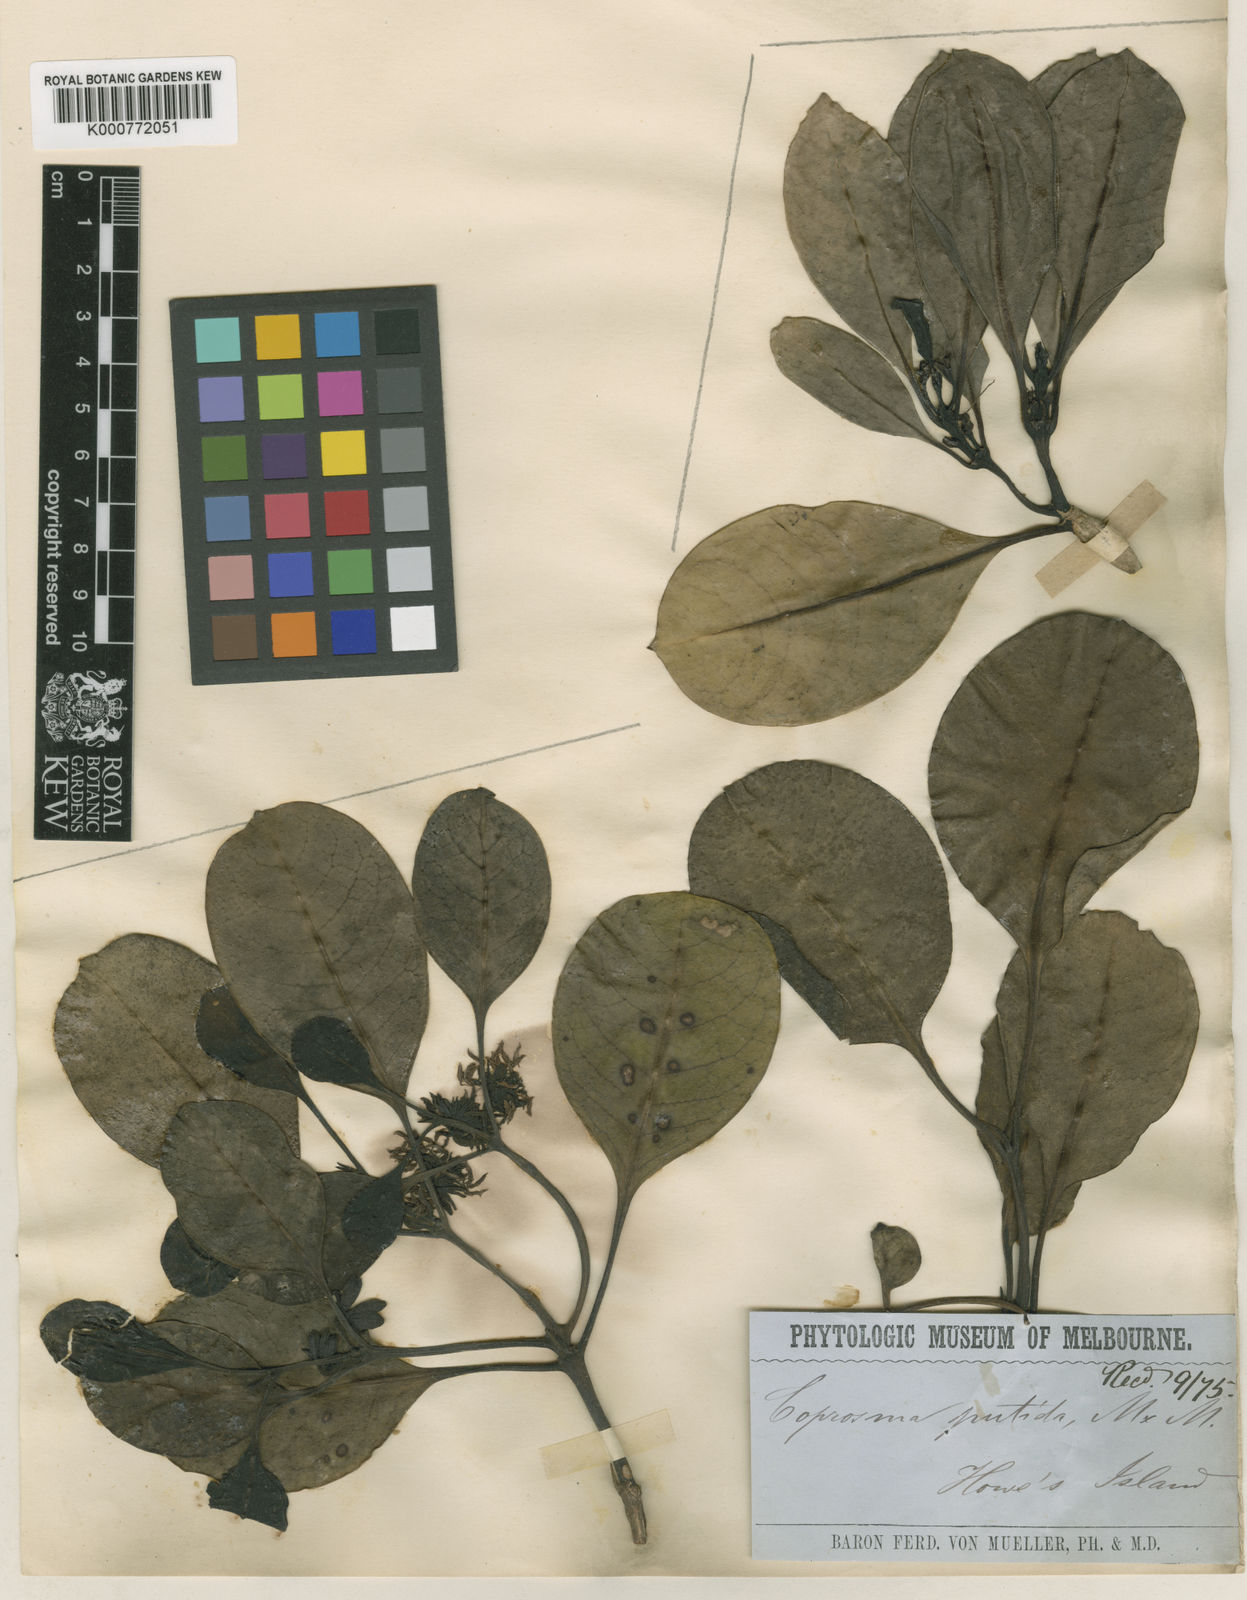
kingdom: Plantae
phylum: Tracheophyta
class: Magnoliopsida
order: Gentianales
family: Rubiaceae
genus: Coprosma
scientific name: Coprosma putida
